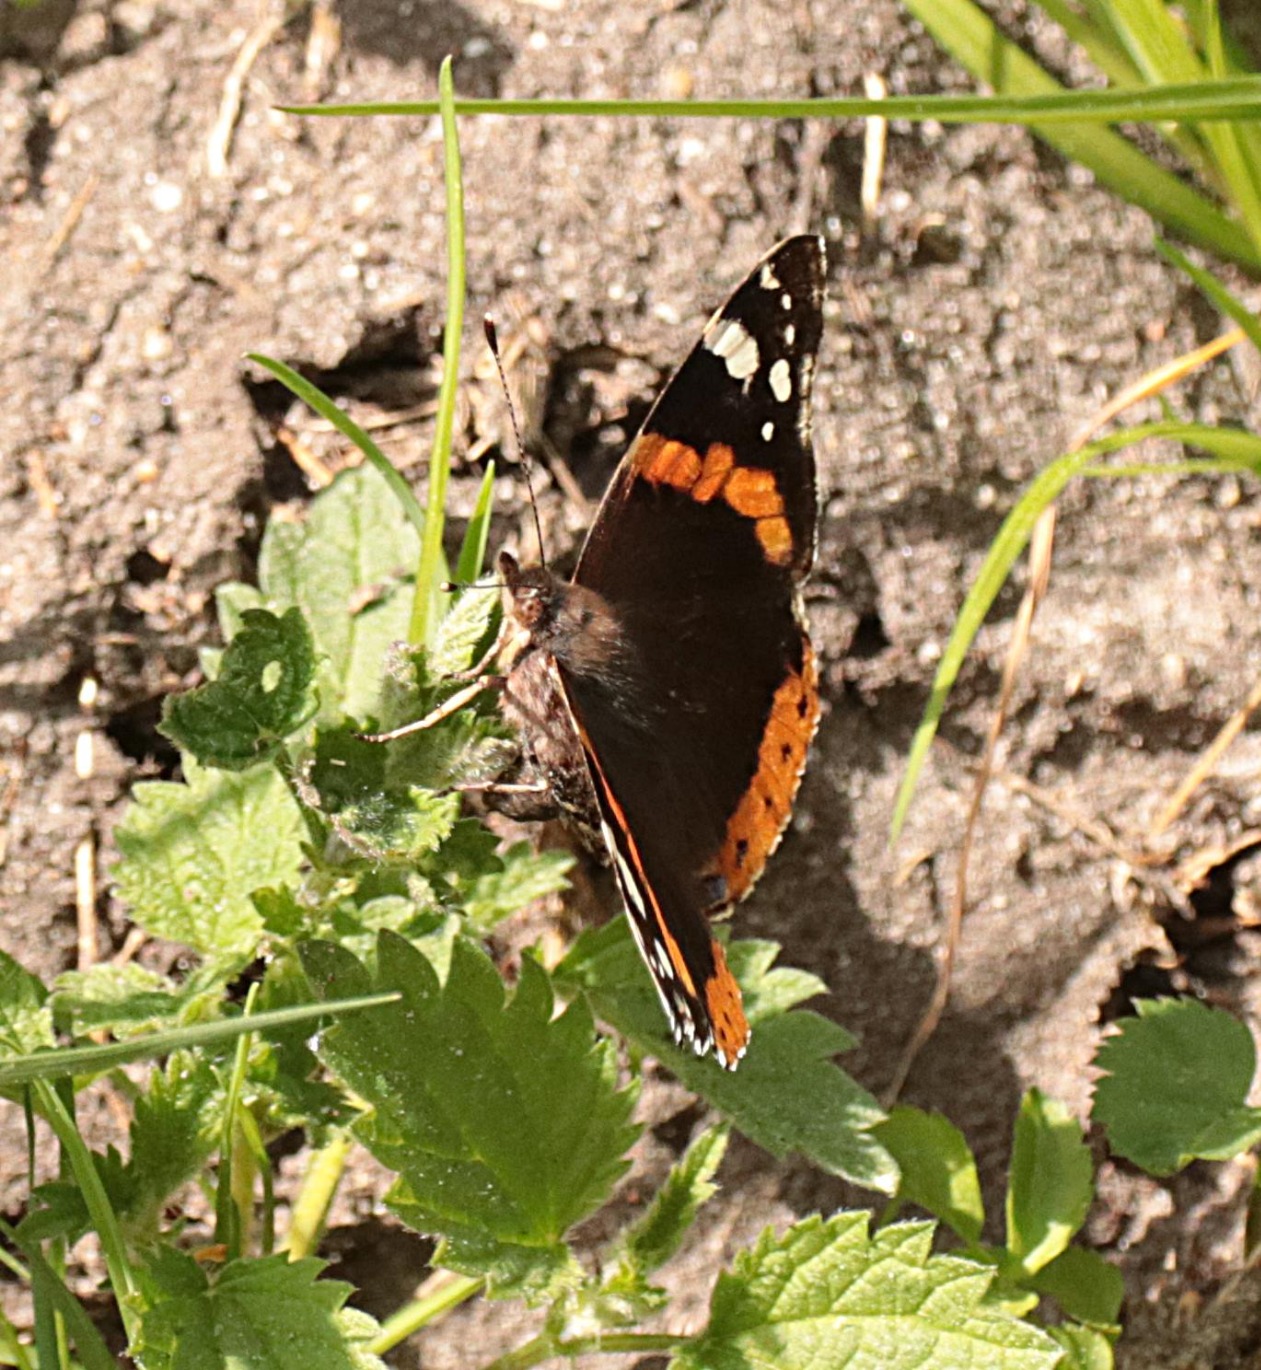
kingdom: Animalia
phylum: Arthropoda
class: Insecta
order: Lepidoptera
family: Nymphalidae
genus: Vanessa
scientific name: Vanessa atalanta
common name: Admiral
